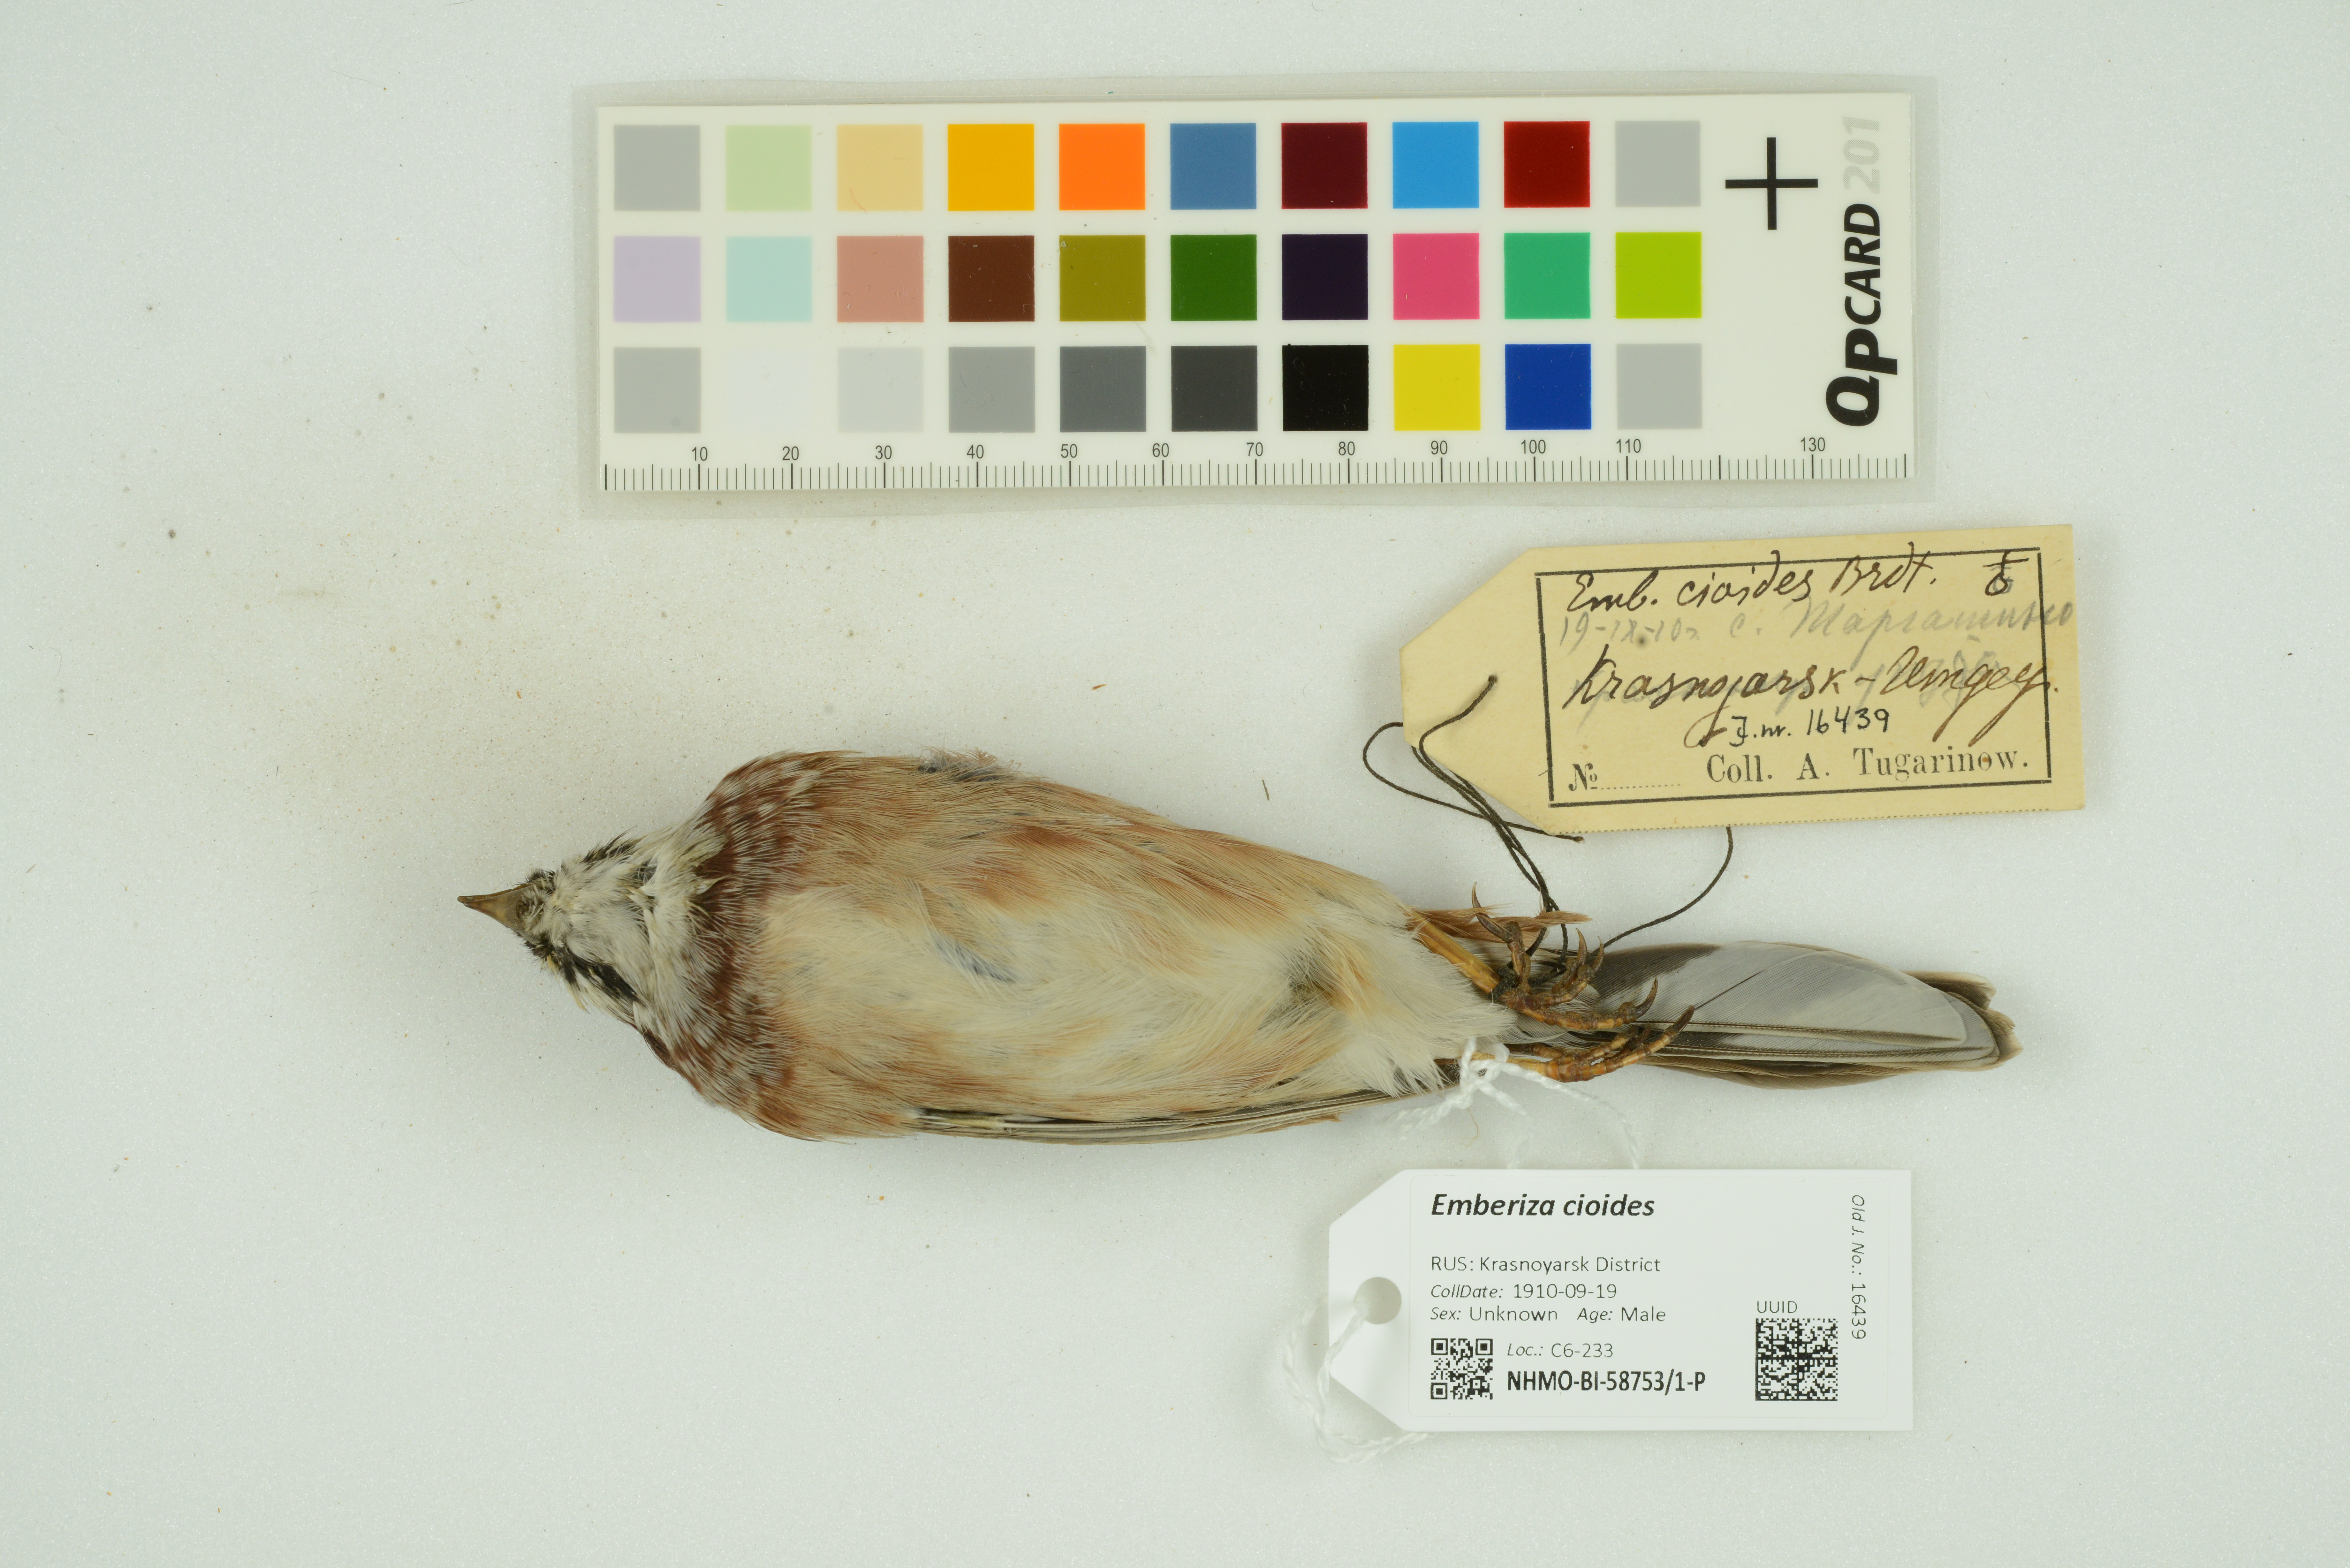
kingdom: Animalia
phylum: Chordata
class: Aves
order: Passeriformes
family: Emberizidae
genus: Emberiza
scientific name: Emberiza cioides
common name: Meadow bunting
